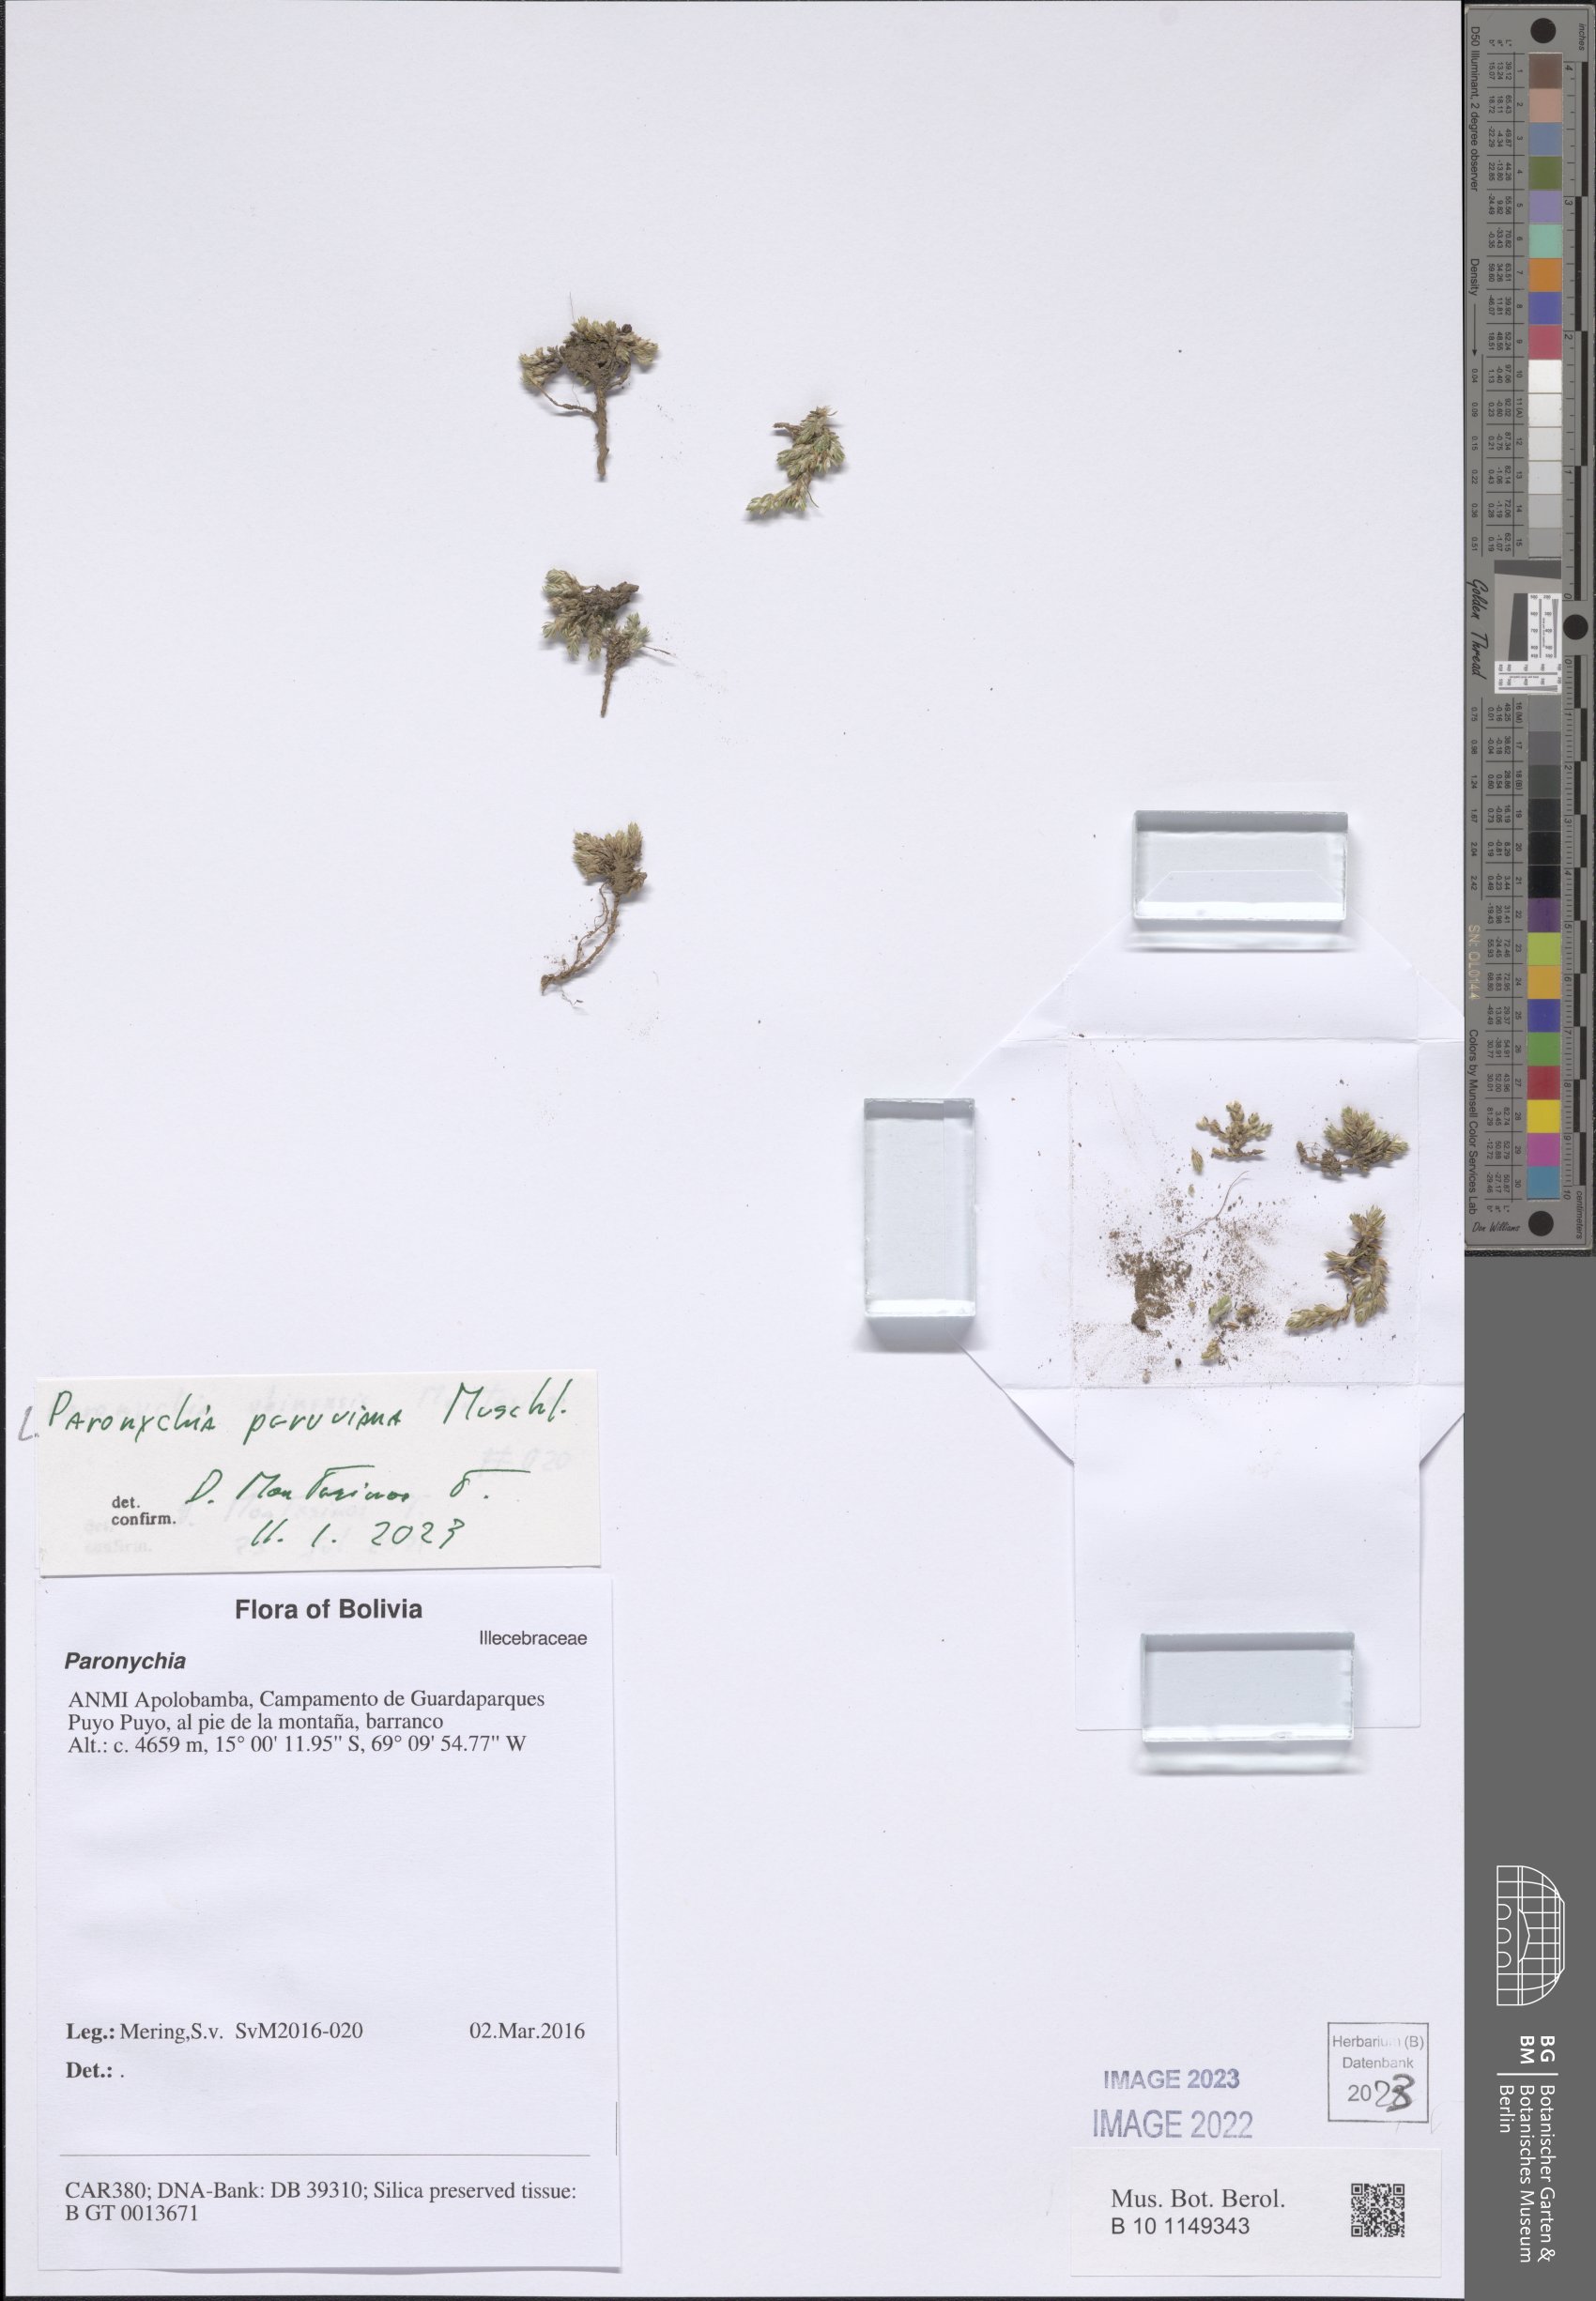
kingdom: Plantae
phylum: Tracheophyta
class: Magnoliopsida
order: Caryophyllales
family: Caryophyllaceae
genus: Paronychia
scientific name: Paronychia peruviana
